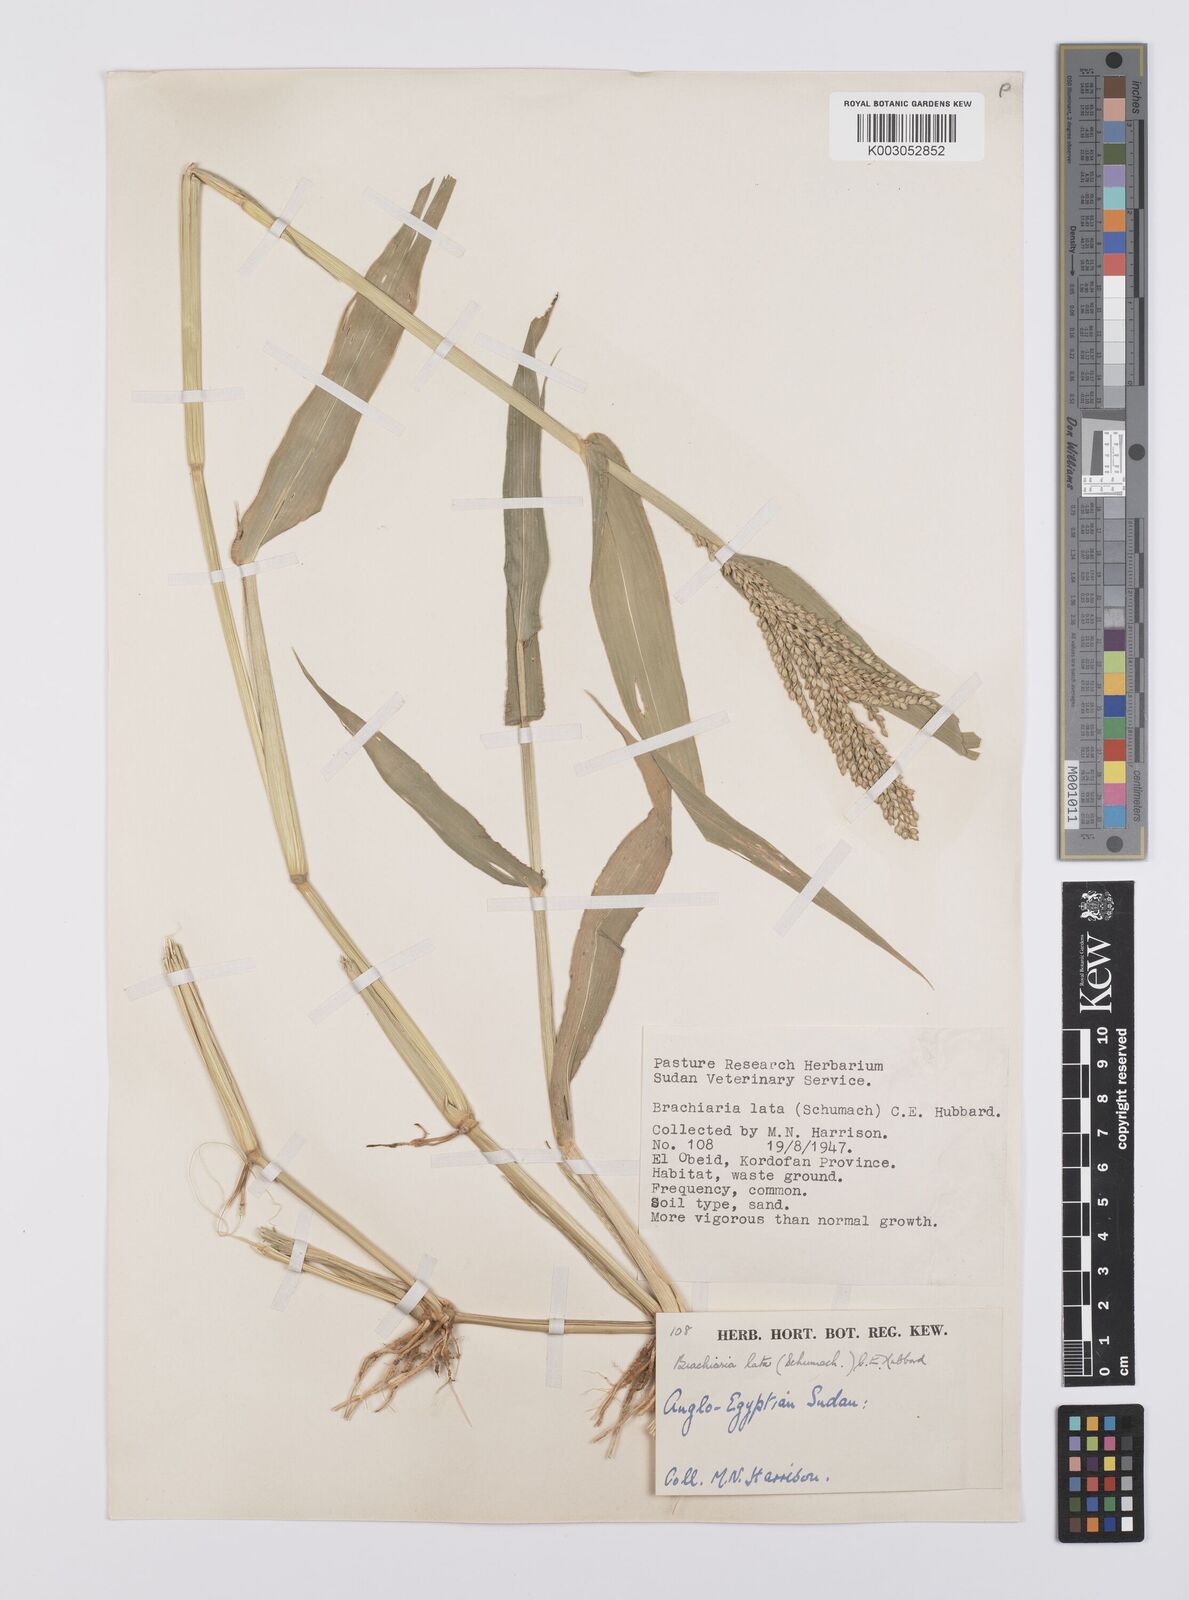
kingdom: Plantae
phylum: Tracheophyta
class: Liliopsida
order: Poales
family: Poaceae
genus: Urochloa
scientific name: Urochloa lata
